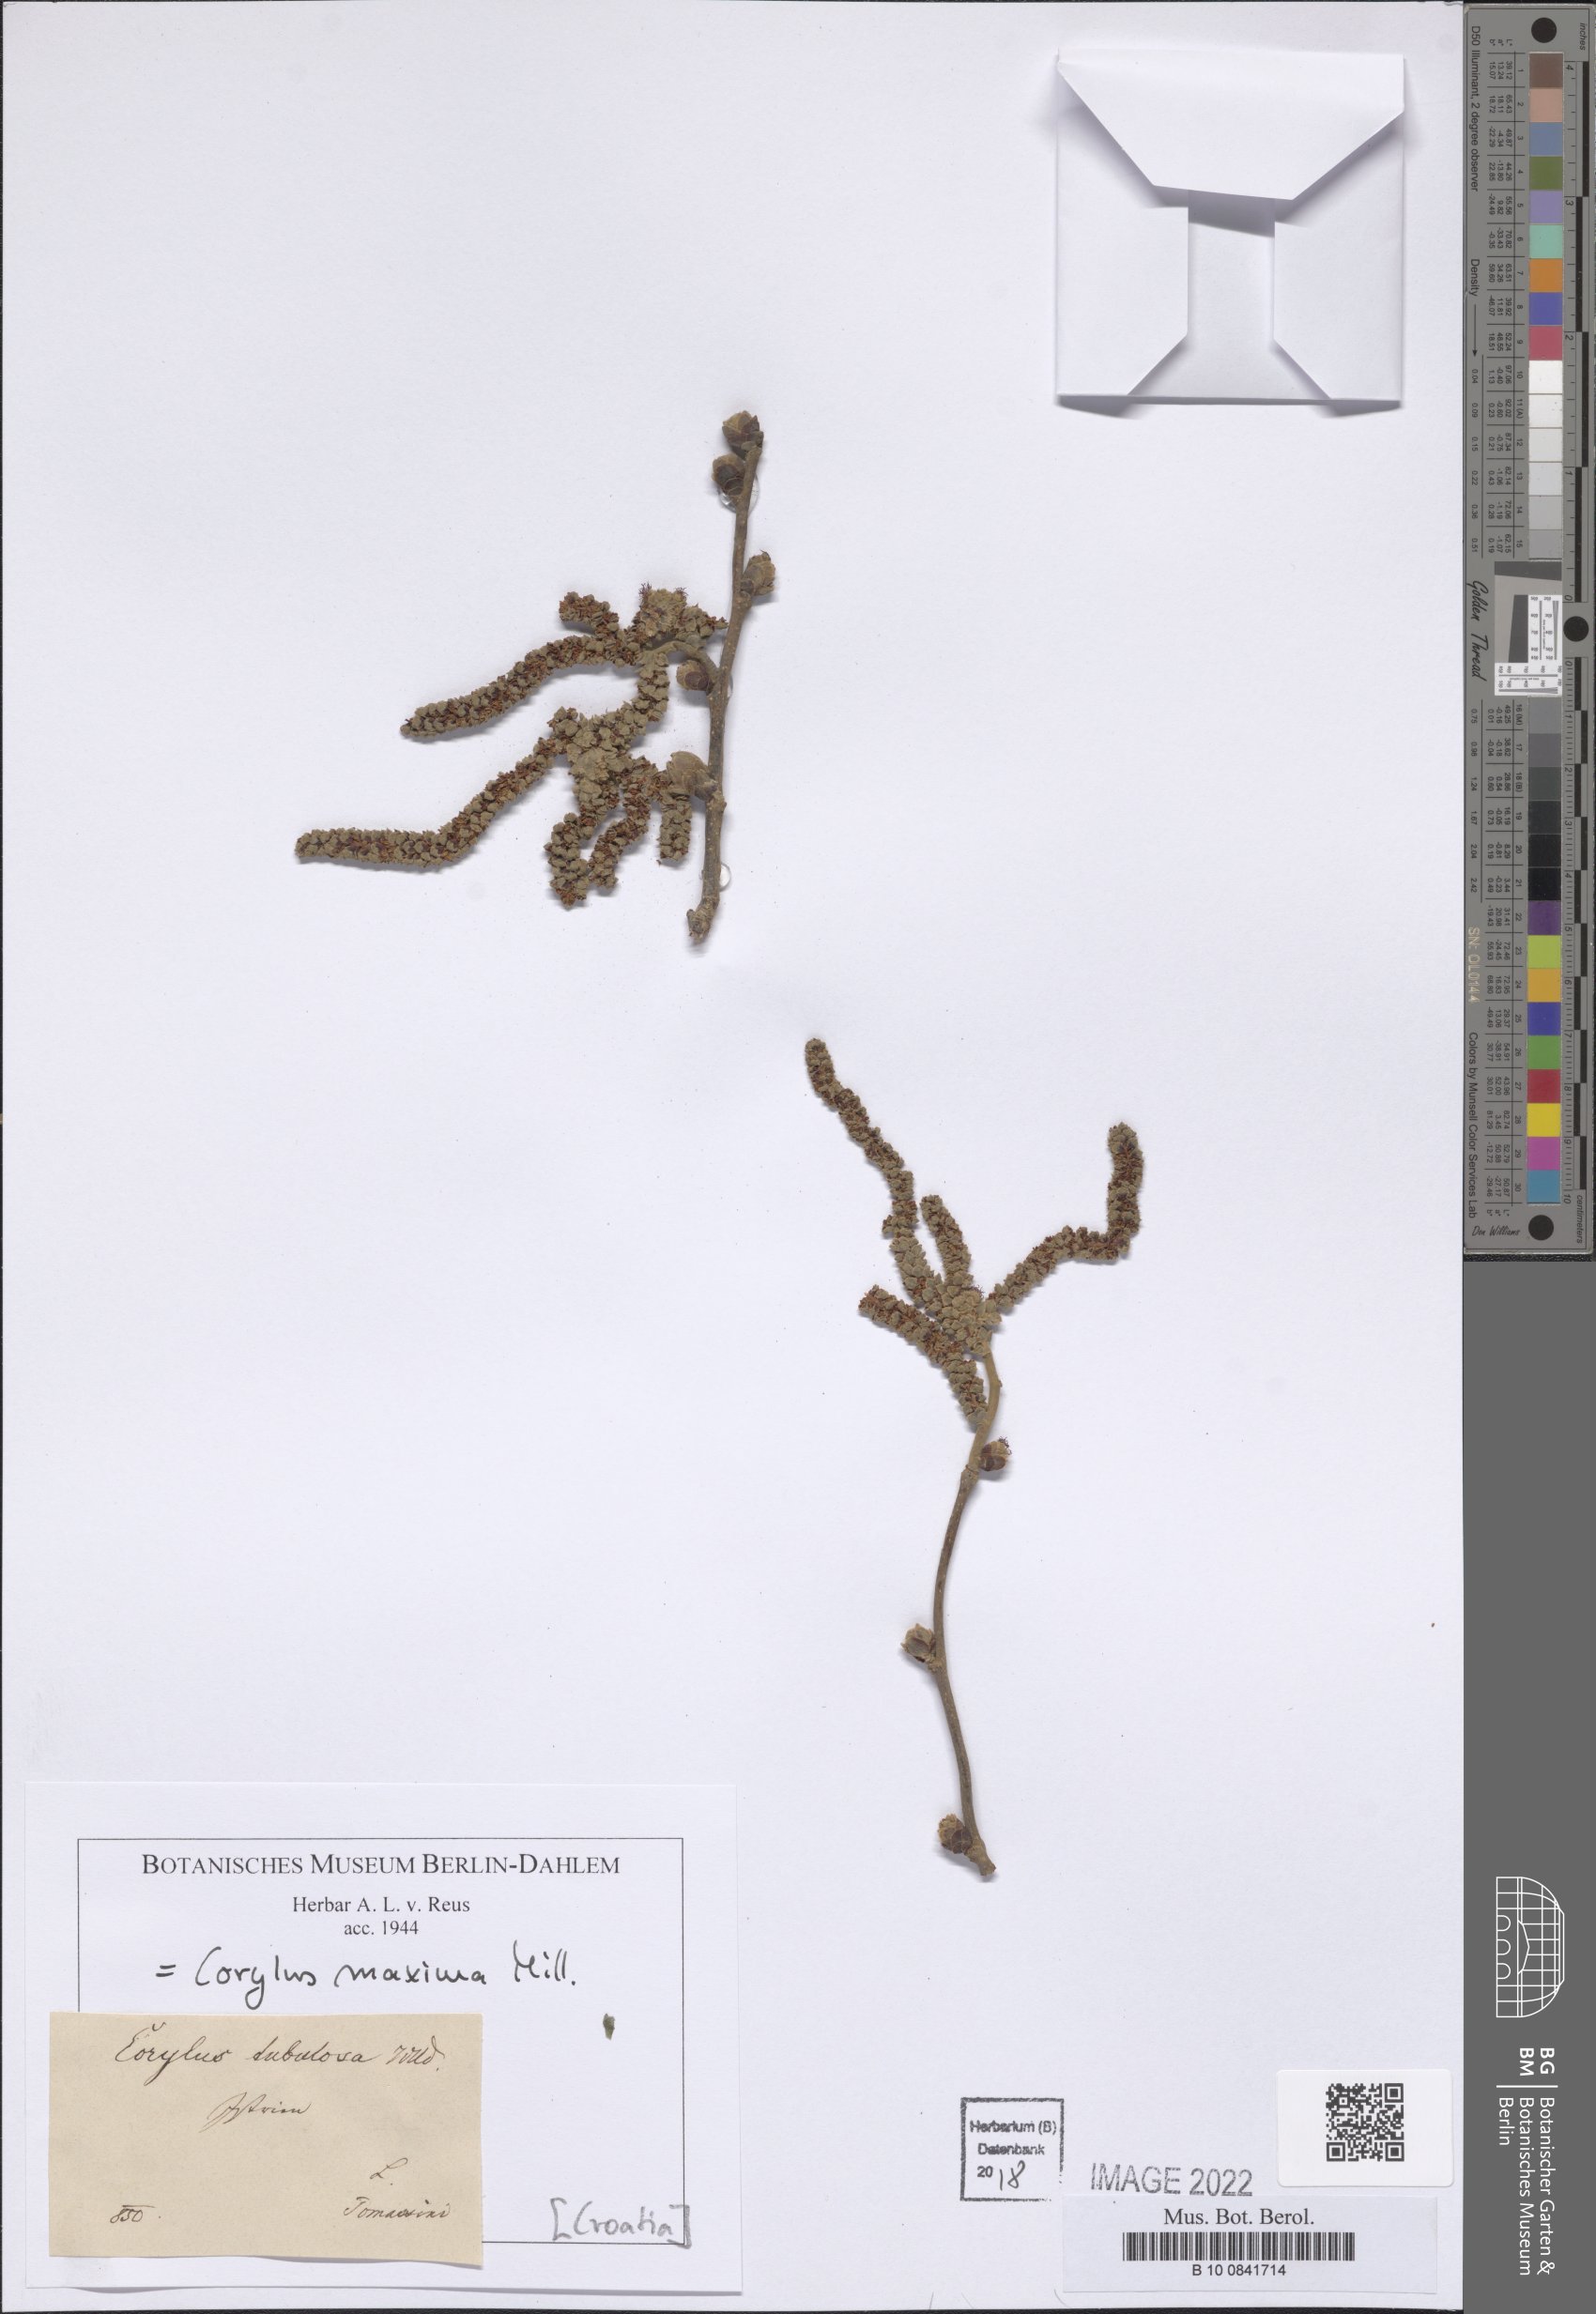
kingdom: Plantae
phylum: Tracheophyta
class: Magnoliopsida
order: Fagales
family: Betulaceae
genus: Corylus
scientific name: Corylus maxima
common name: Filbert
